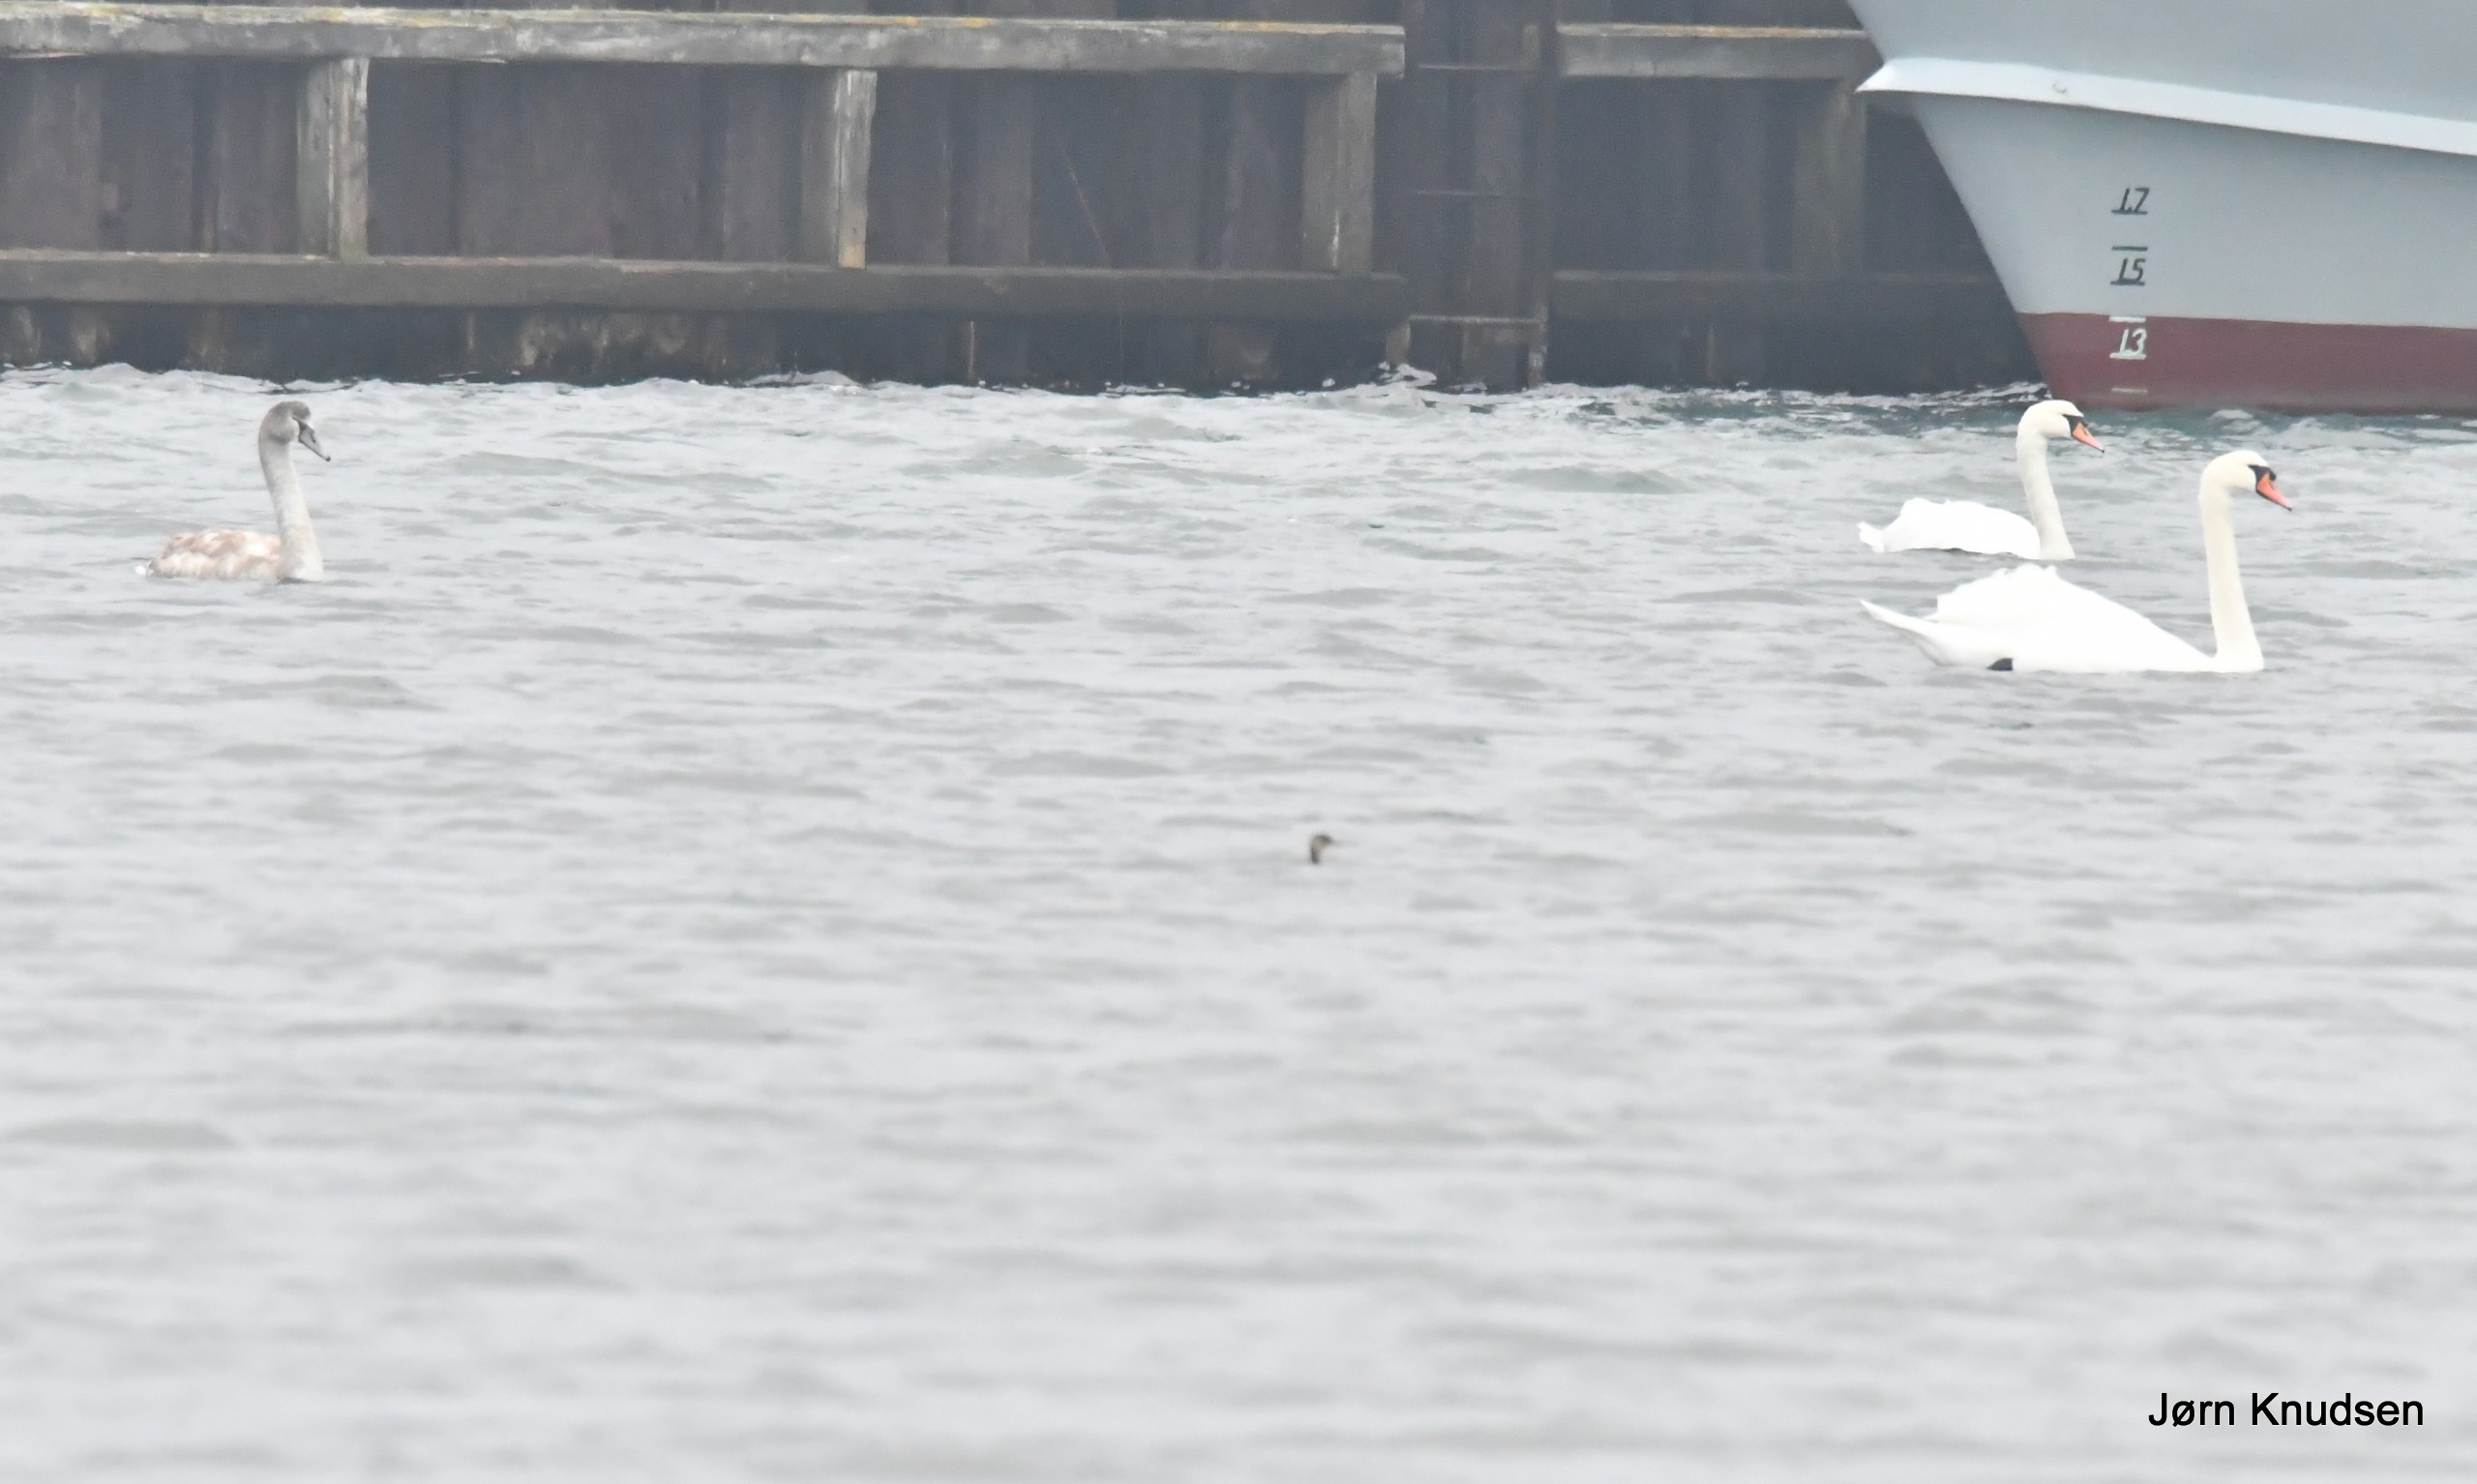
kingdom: Animalia
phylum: Chordata
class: Aves
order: Anseriformes
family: Anatidae
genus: Cygnus
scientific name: Cygnus olor
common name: Knopsvane
